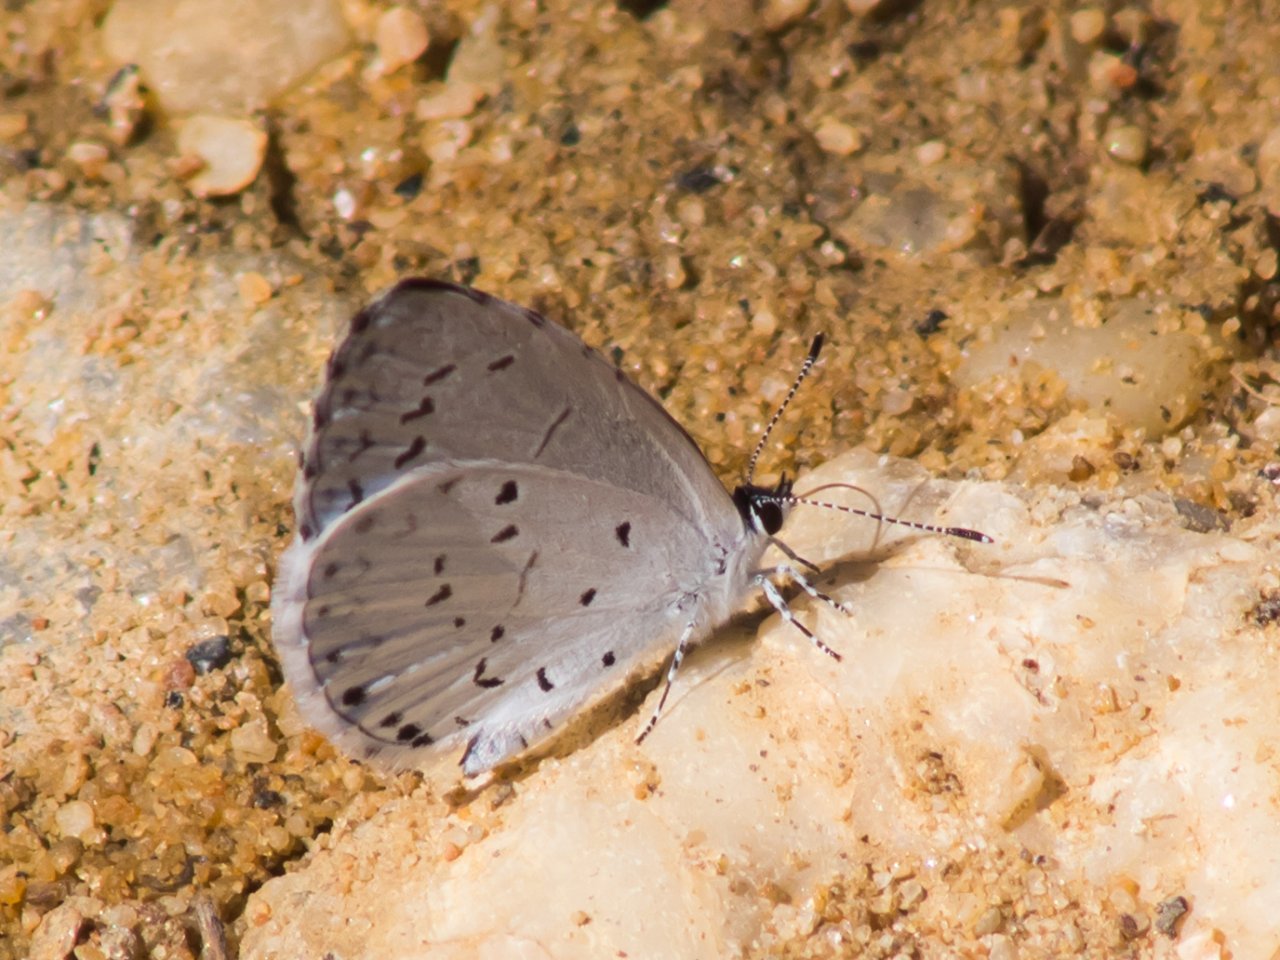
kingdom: Animalia
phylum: Arthropoda
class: Insecta
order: Lepidoptera
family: Lycaenidae
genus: Cyaniris
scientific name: Cyaniris neglecta
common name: Summer Azure
